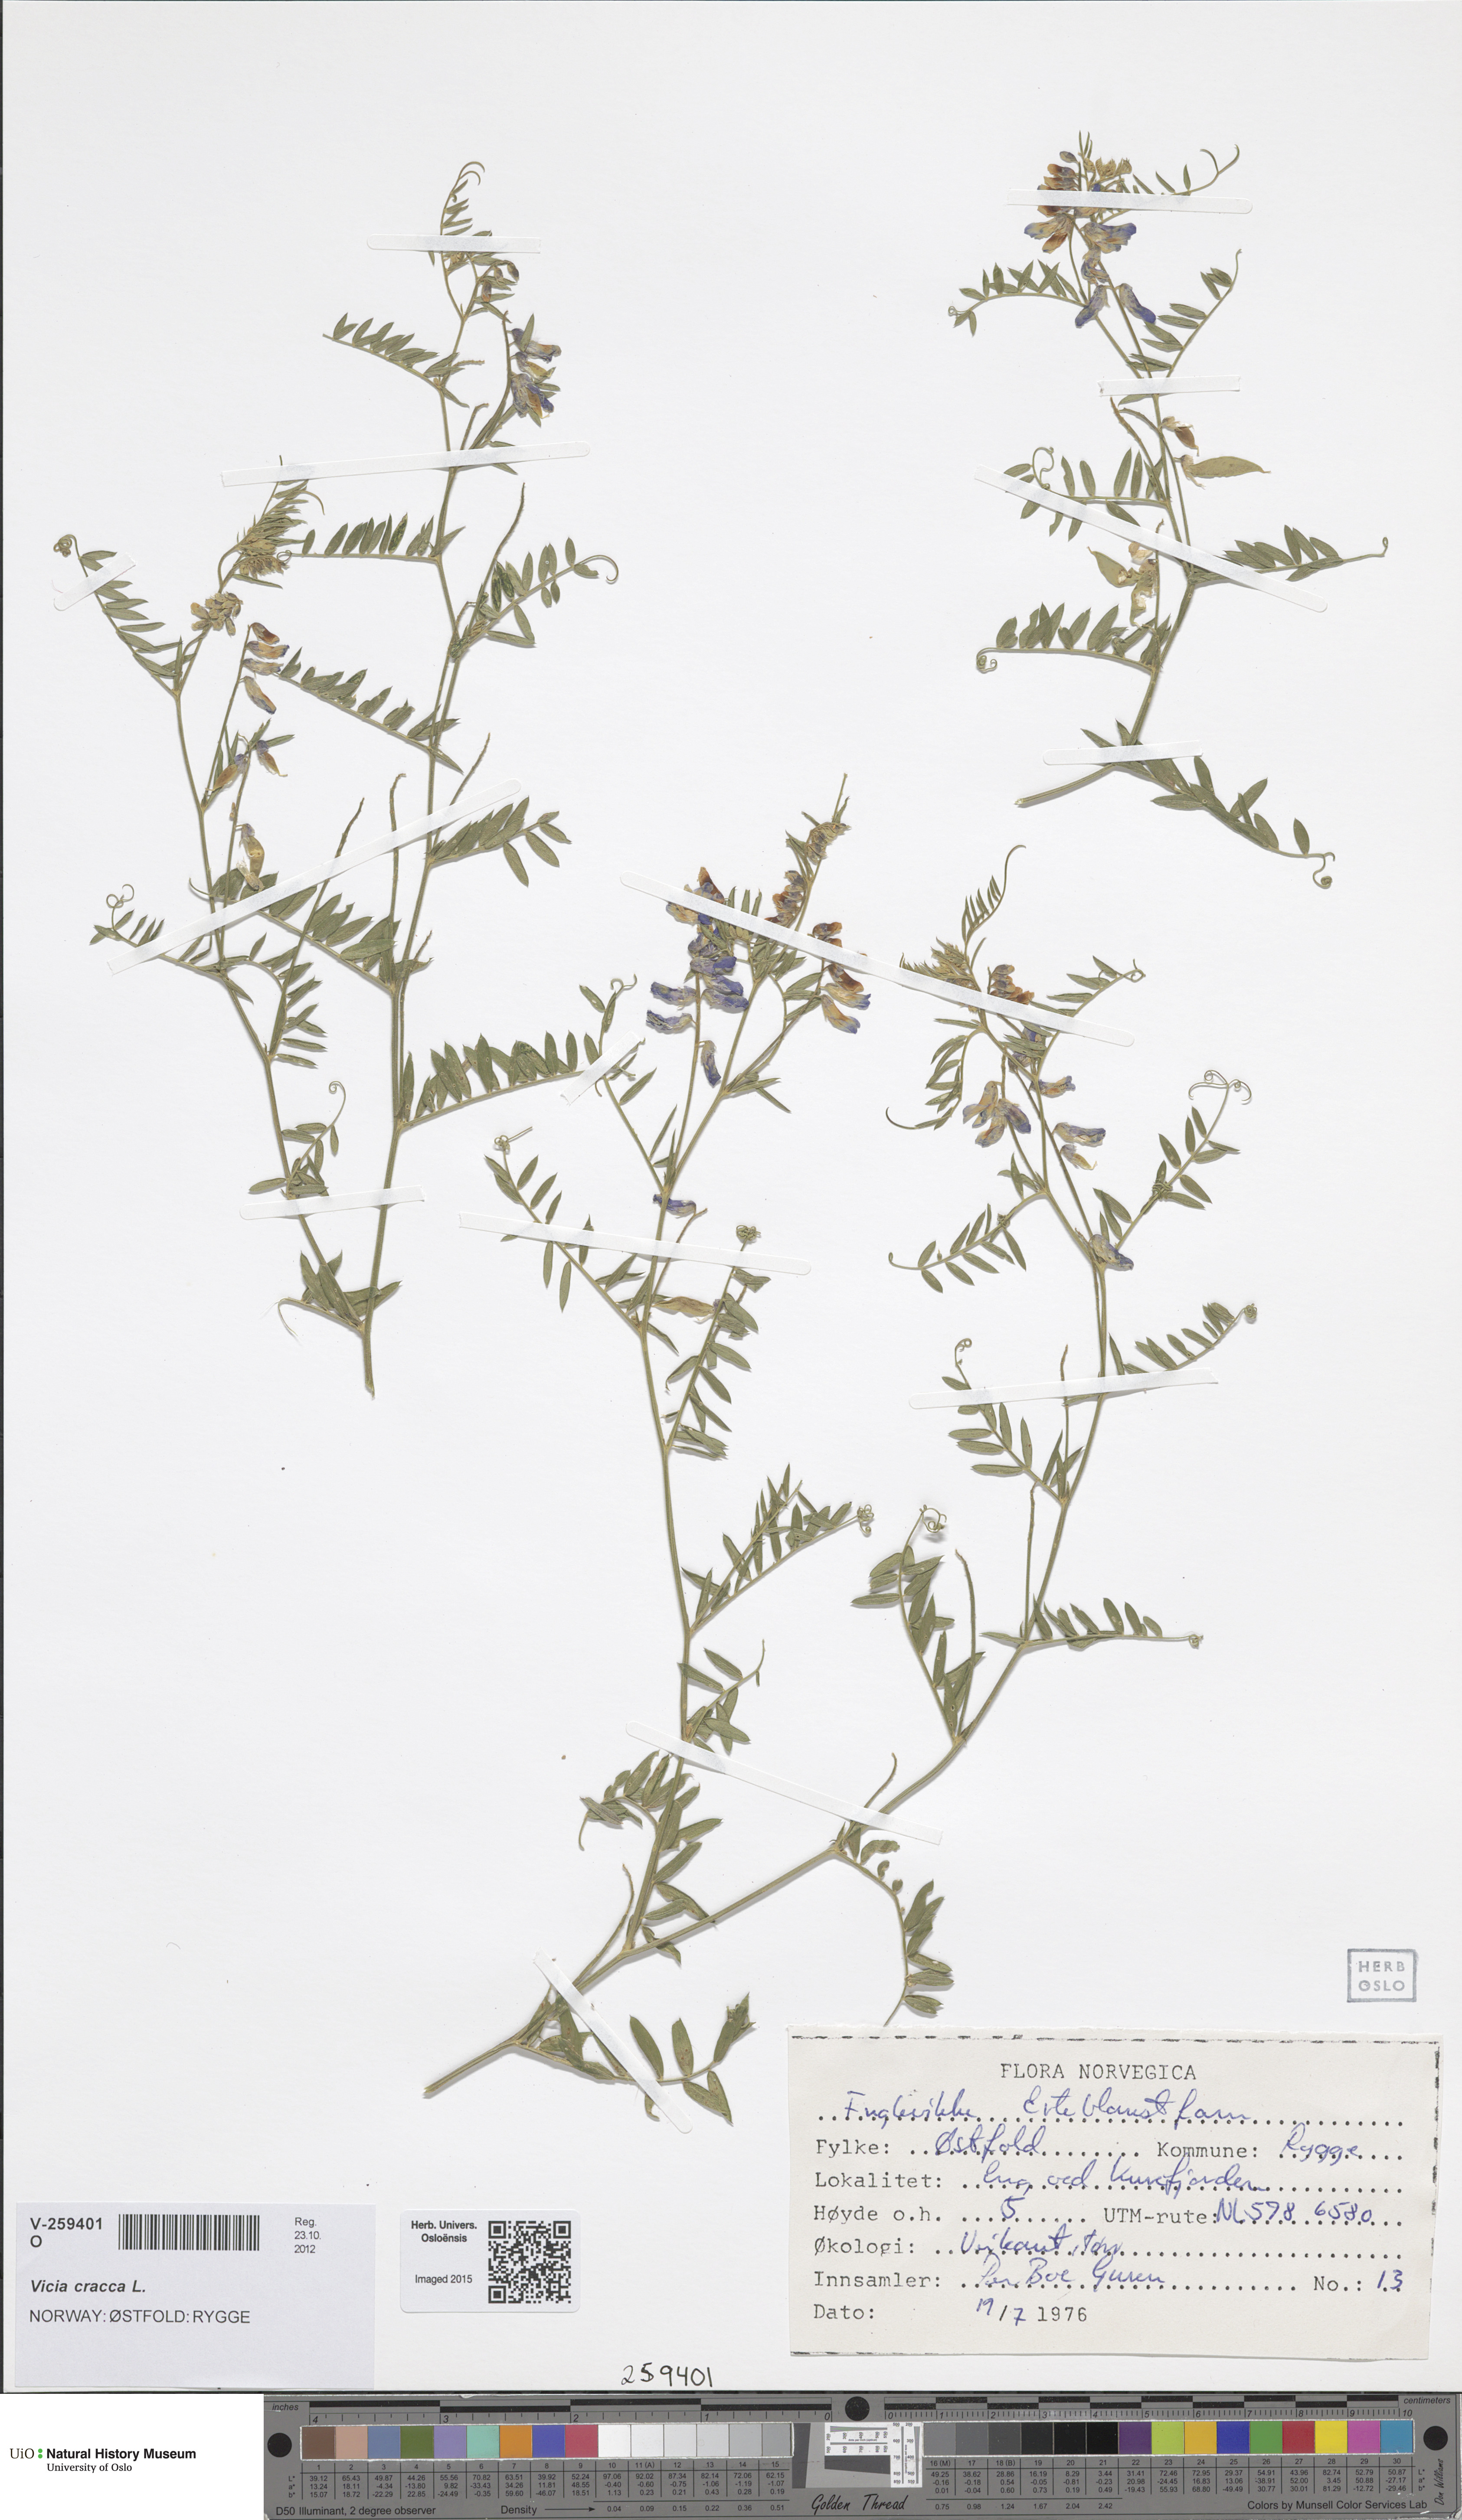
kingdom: Plantae
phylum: Tracheophyta
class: Magnoliopsida
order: Fabales
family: Fabaceae
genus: Vicia
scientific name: Vicia cracca
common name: Bird vetch
